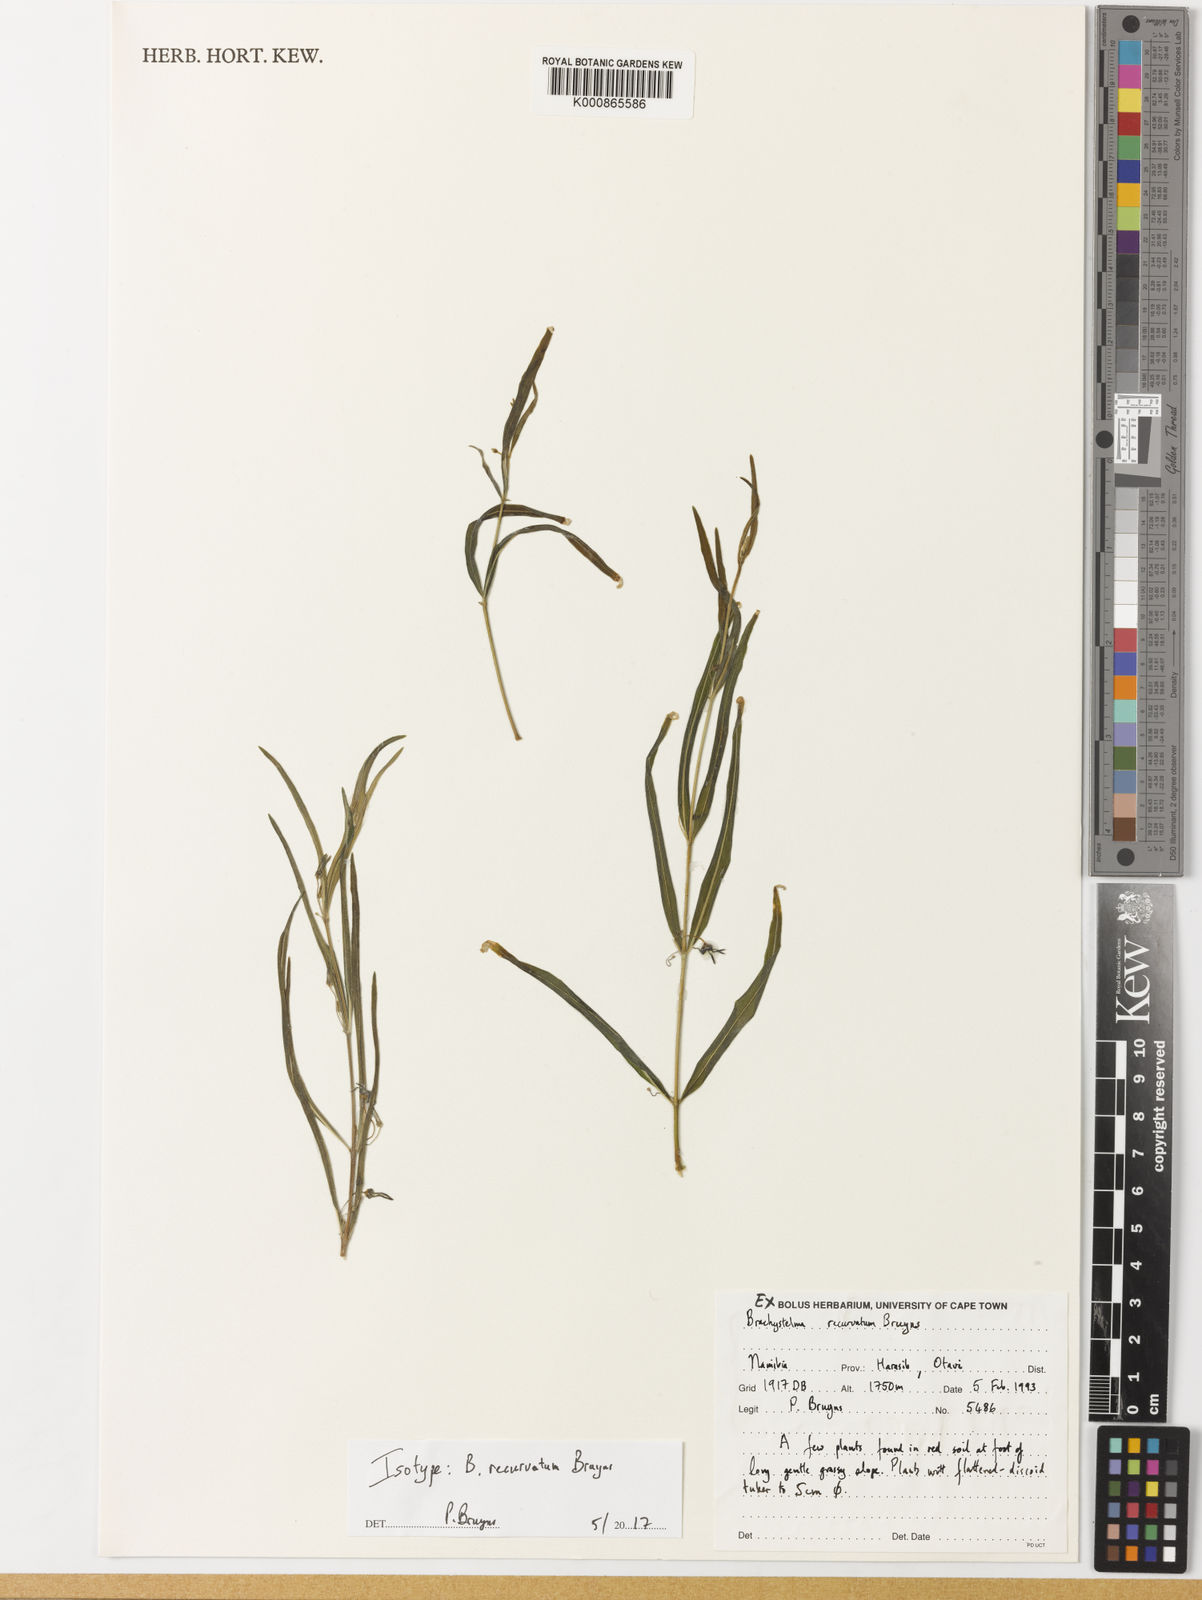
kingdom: Plantae
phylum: Tracheophyta
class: Magnoliopsida
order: Gentianales
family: Apocynaceae
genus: Ceropegia
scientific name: Ceropegia recurviloba
